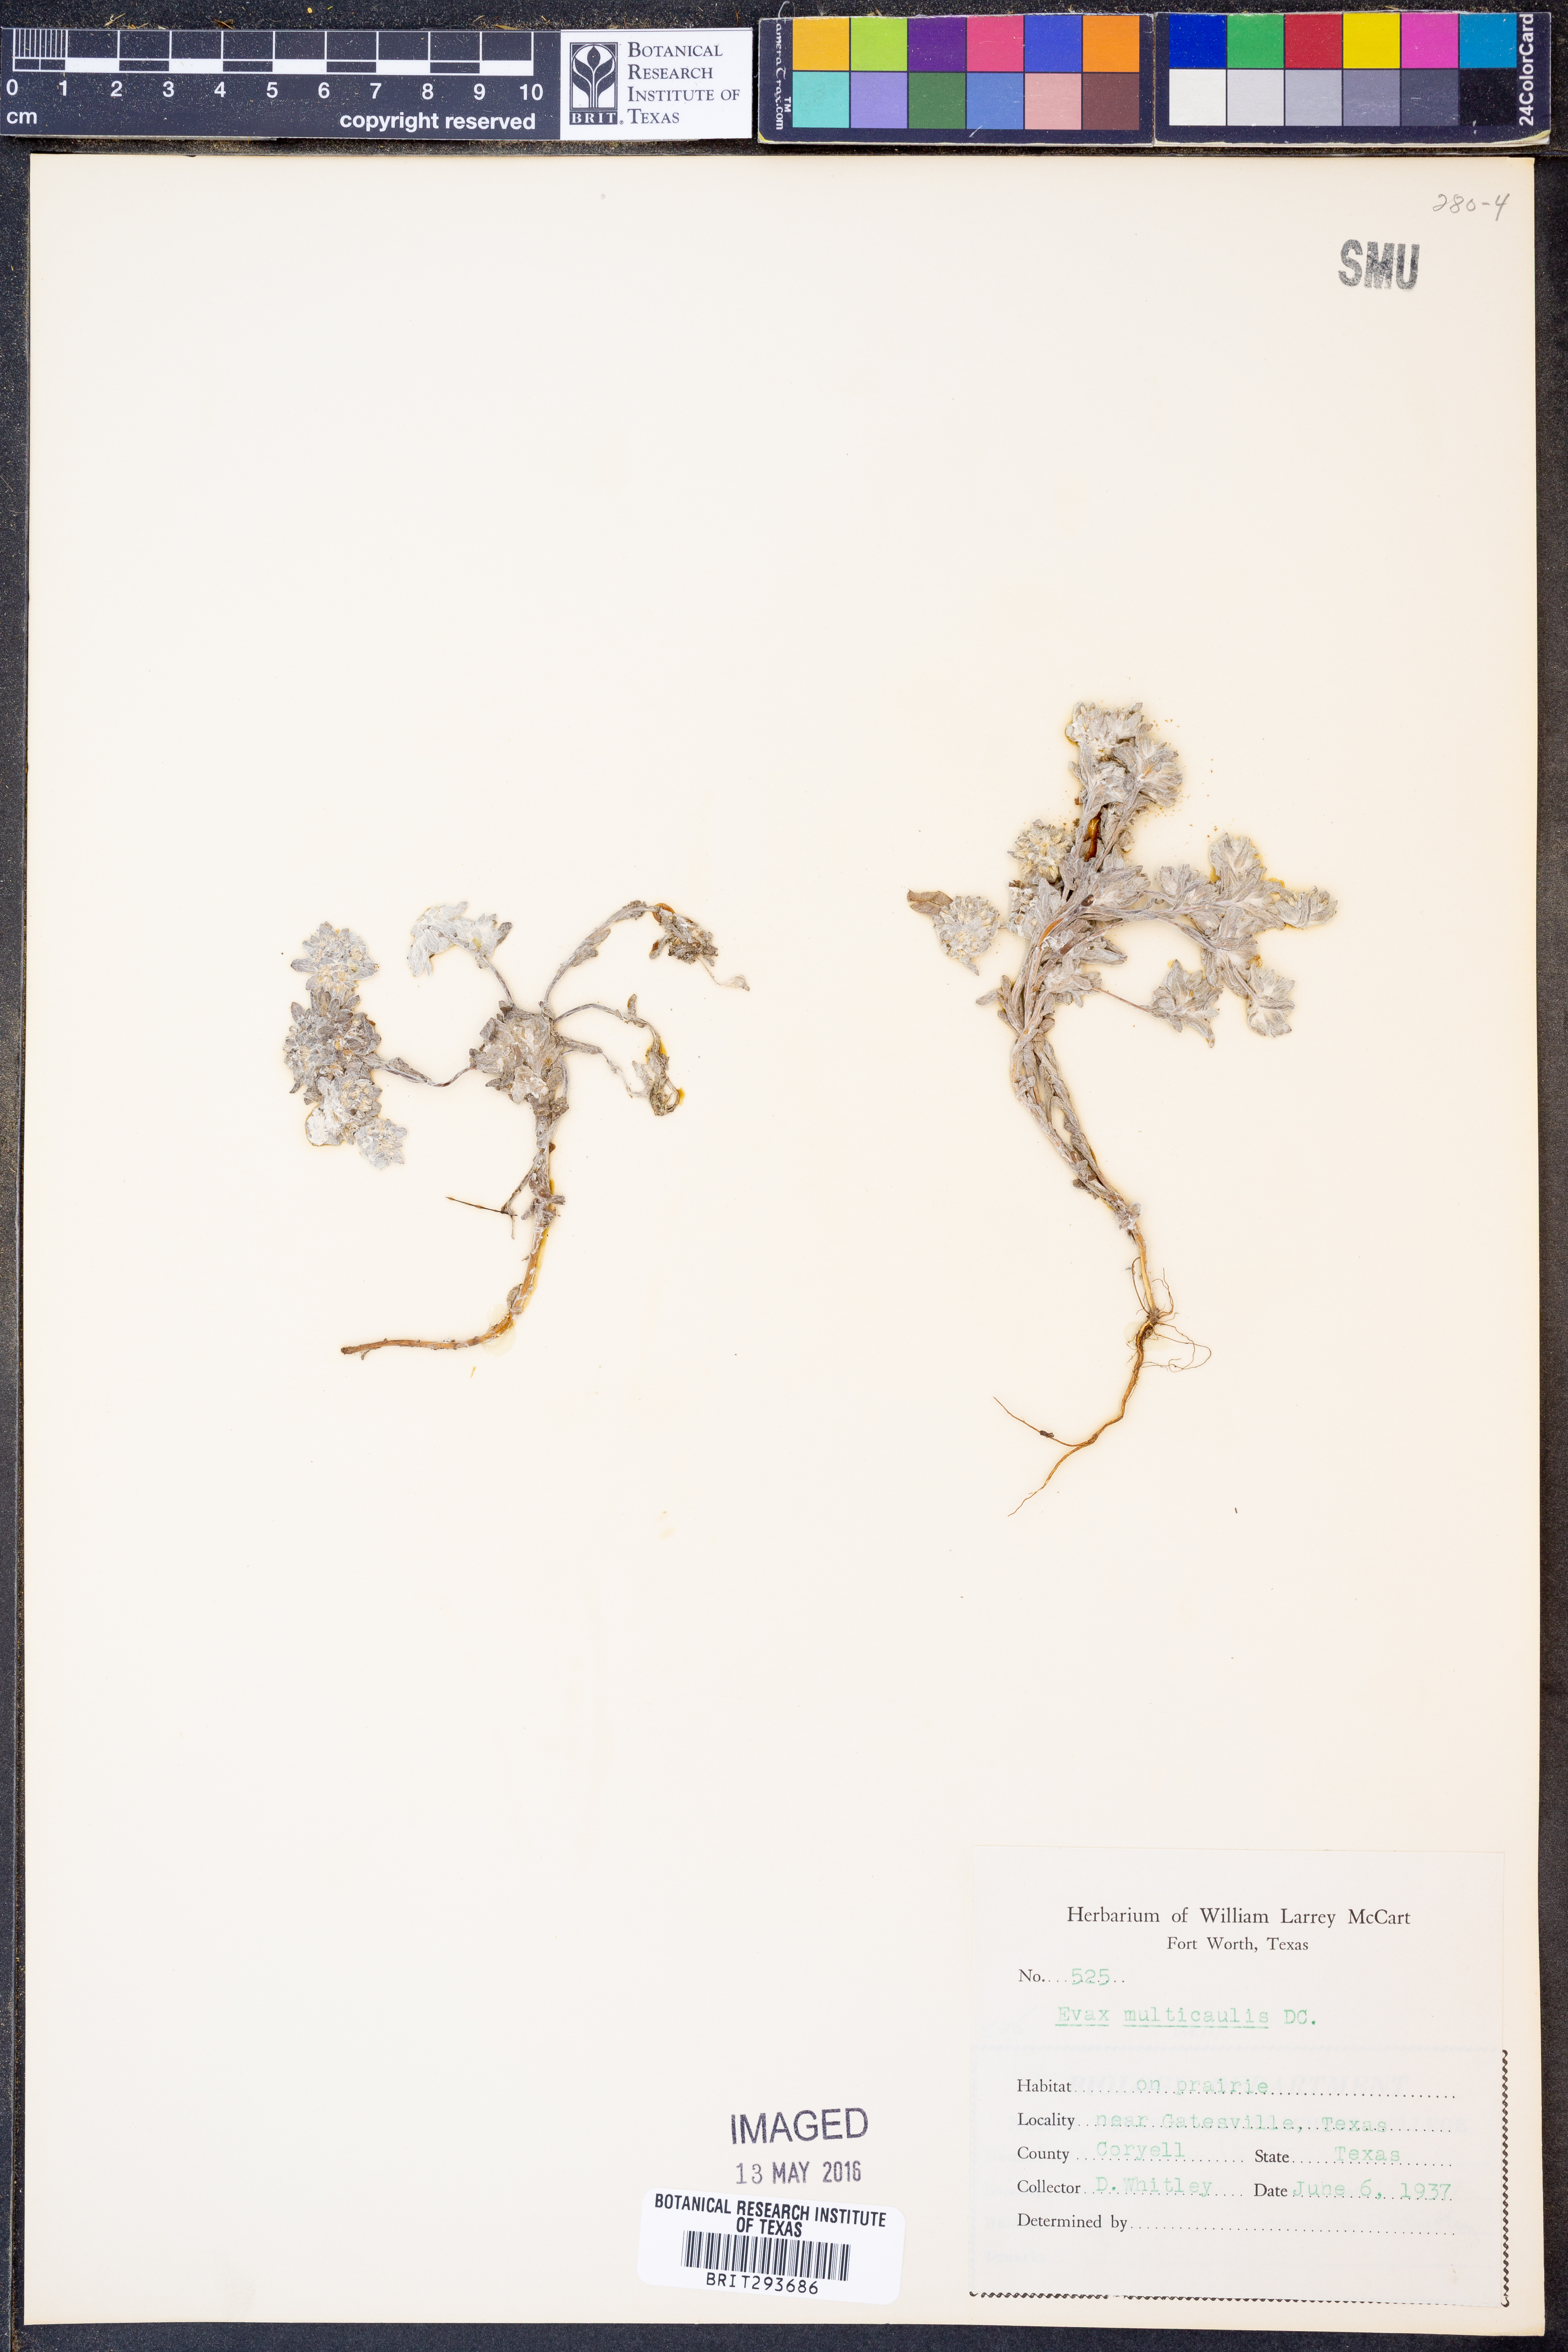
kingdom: Plantae
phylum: Tracheophyta
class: Magnoliopsida
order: Asterales
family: Asteraceae
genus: Diaperia
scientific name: Diaperia verna
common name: Many-stem rabbit-tobacco
